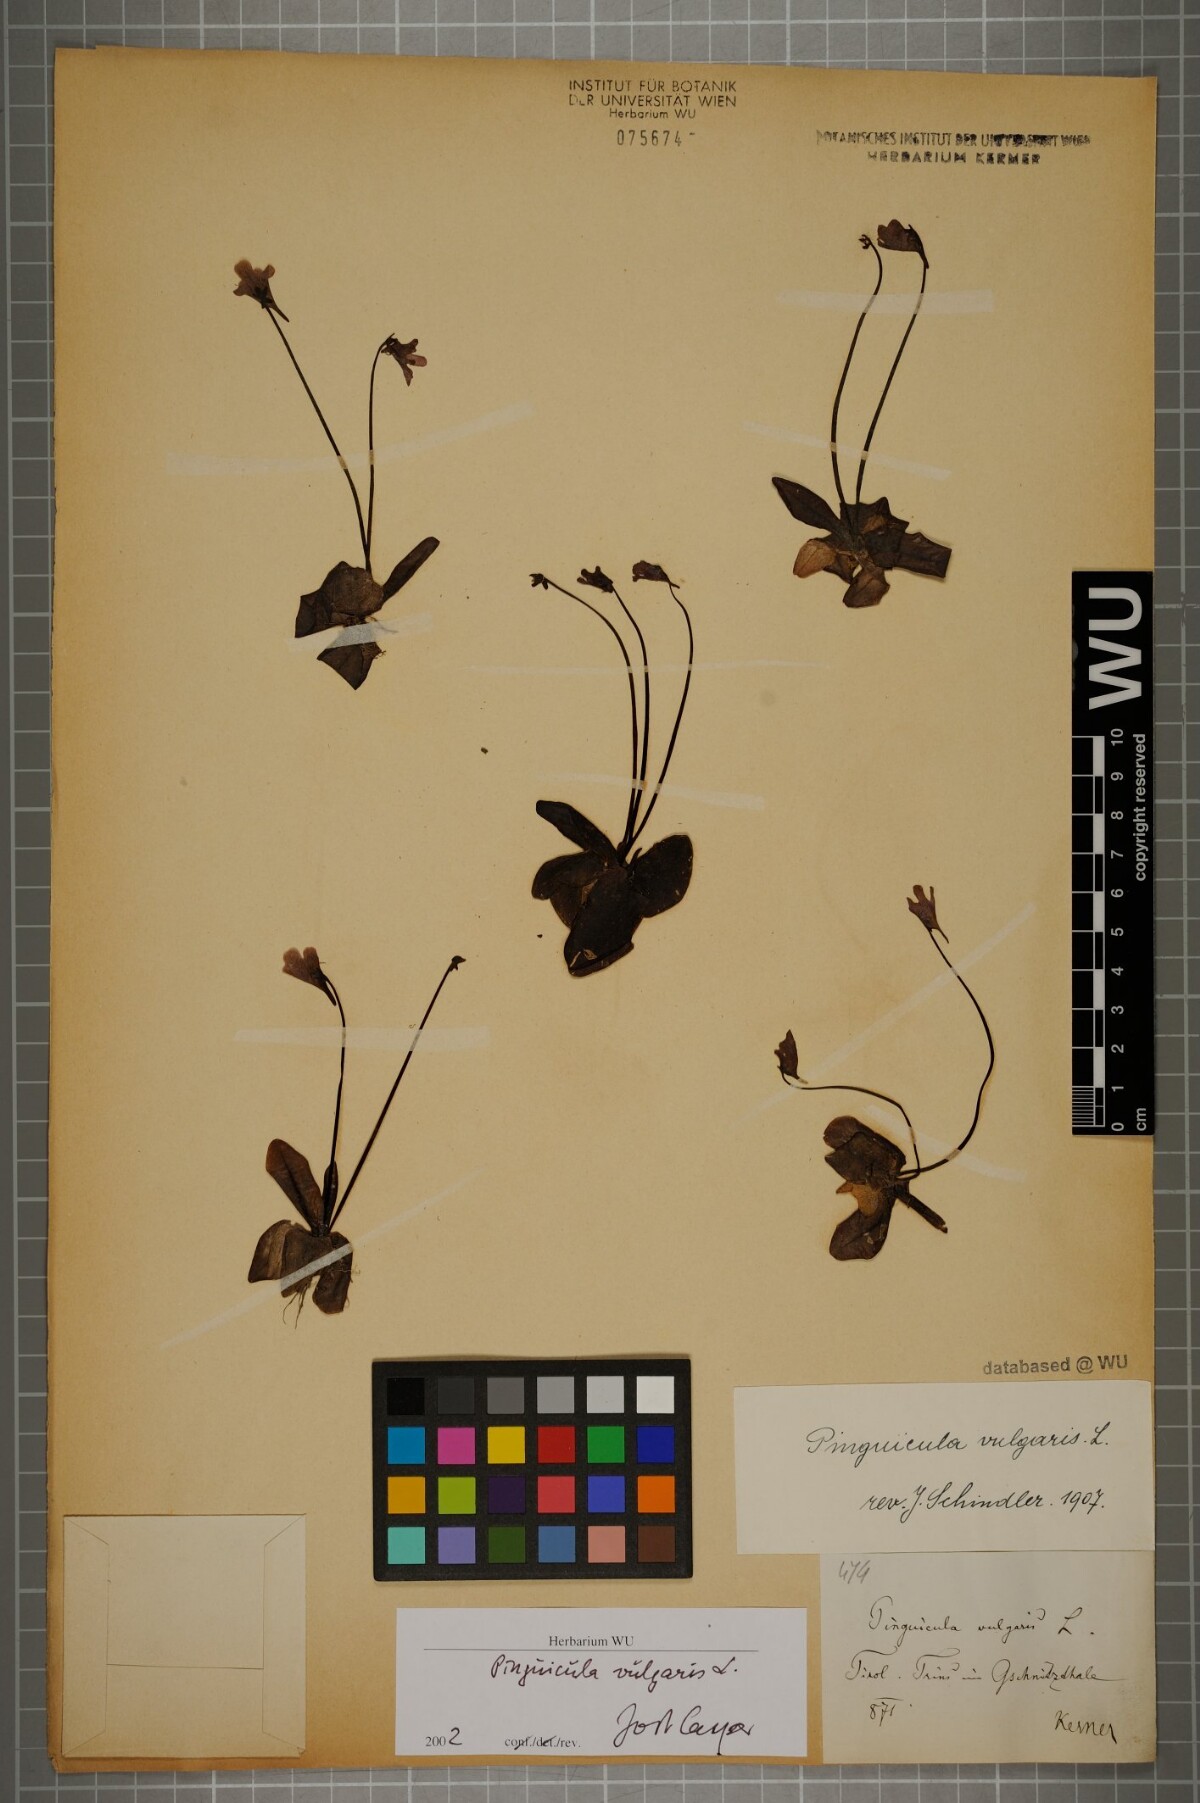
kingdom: Plantae
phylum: Tracheophyta
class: Magnoliopsida
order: Lamiales
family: Lentibulariaceae
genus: Pinguicula
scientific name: Pinguicula vulgaris
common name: Common butterwort
